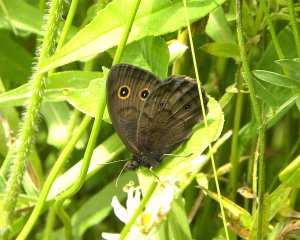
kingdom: Animalia
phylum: Arthropoda
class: Insecta
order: Lepidoptera
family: Nymphalidae
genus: Cercyonis
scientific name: Cercyonis pegala
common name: Common Wood-Nymph
